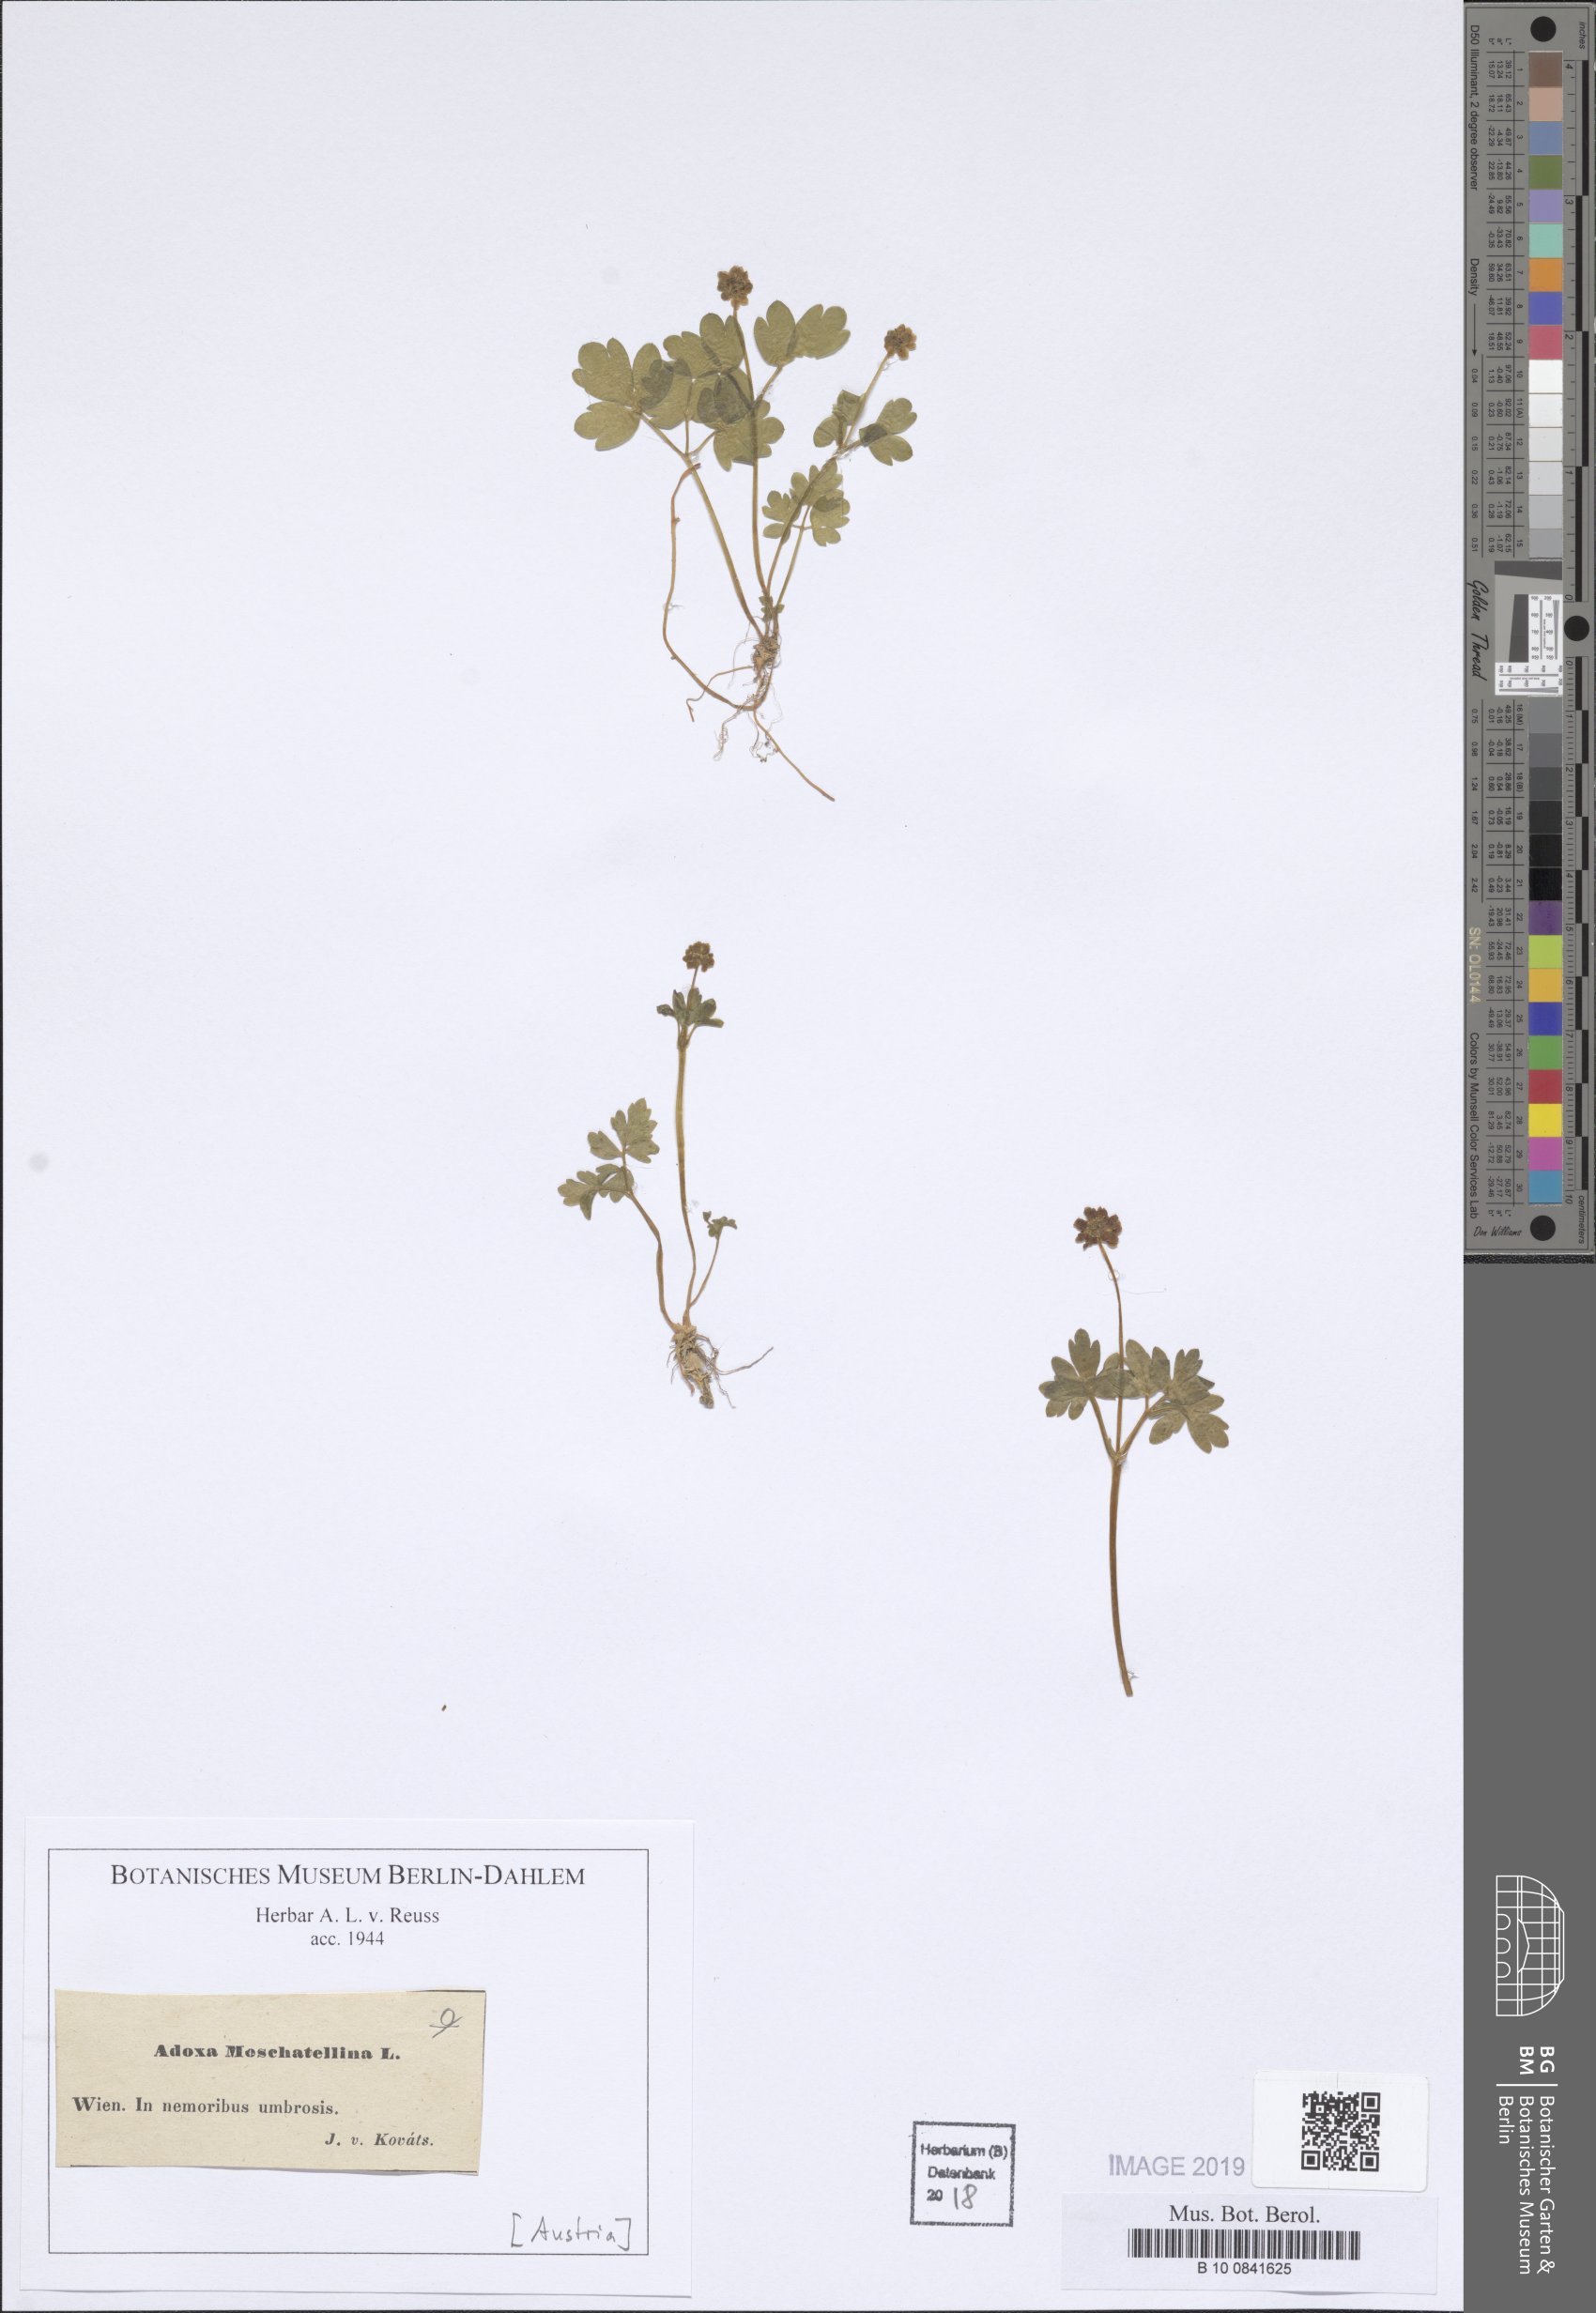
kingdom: Plantae
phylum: Tracheophyta
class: Magnoliopsida
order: Dipsacales
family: Viburnaceae
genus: Adoxa
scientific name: Adoxa moschatellina
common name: Moschatel
